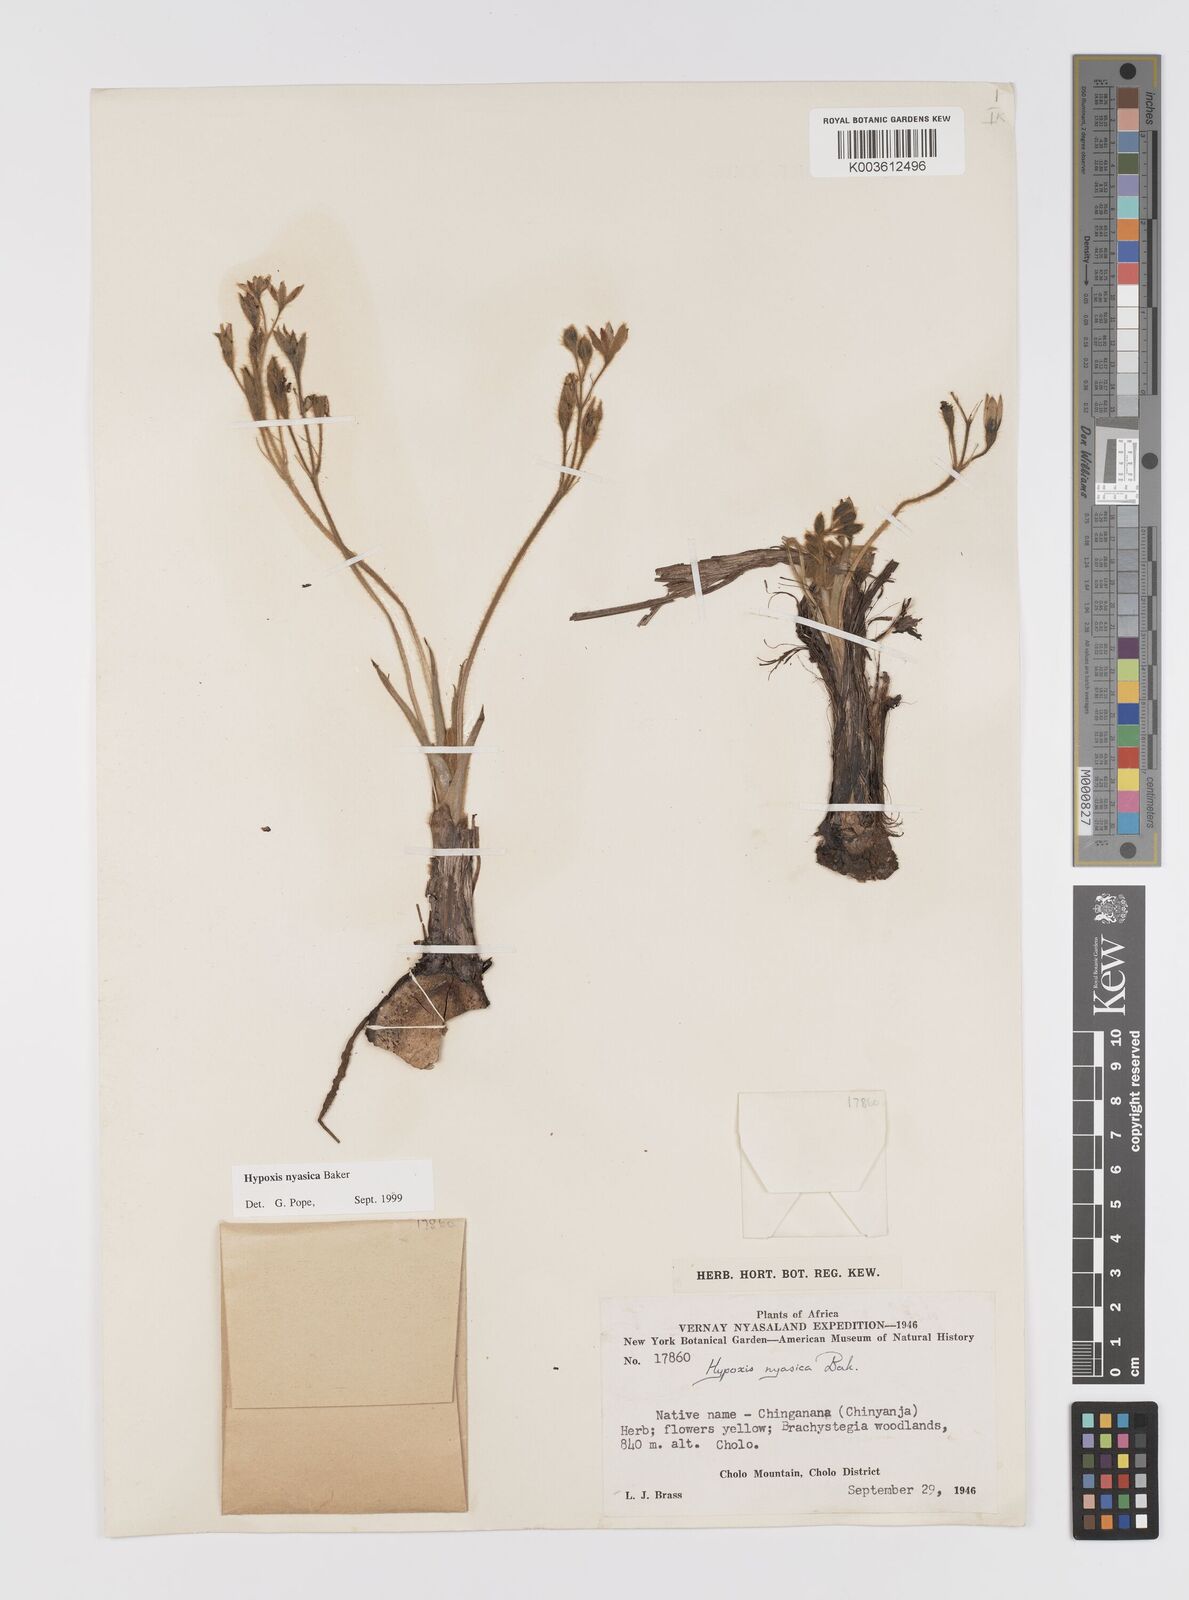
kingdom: Plantae
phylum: Tracheophyta
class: Liliopsida
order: Asparagales
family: Hypoxidaceae
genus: Hypoxis
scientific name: Hypoxis nyasica
